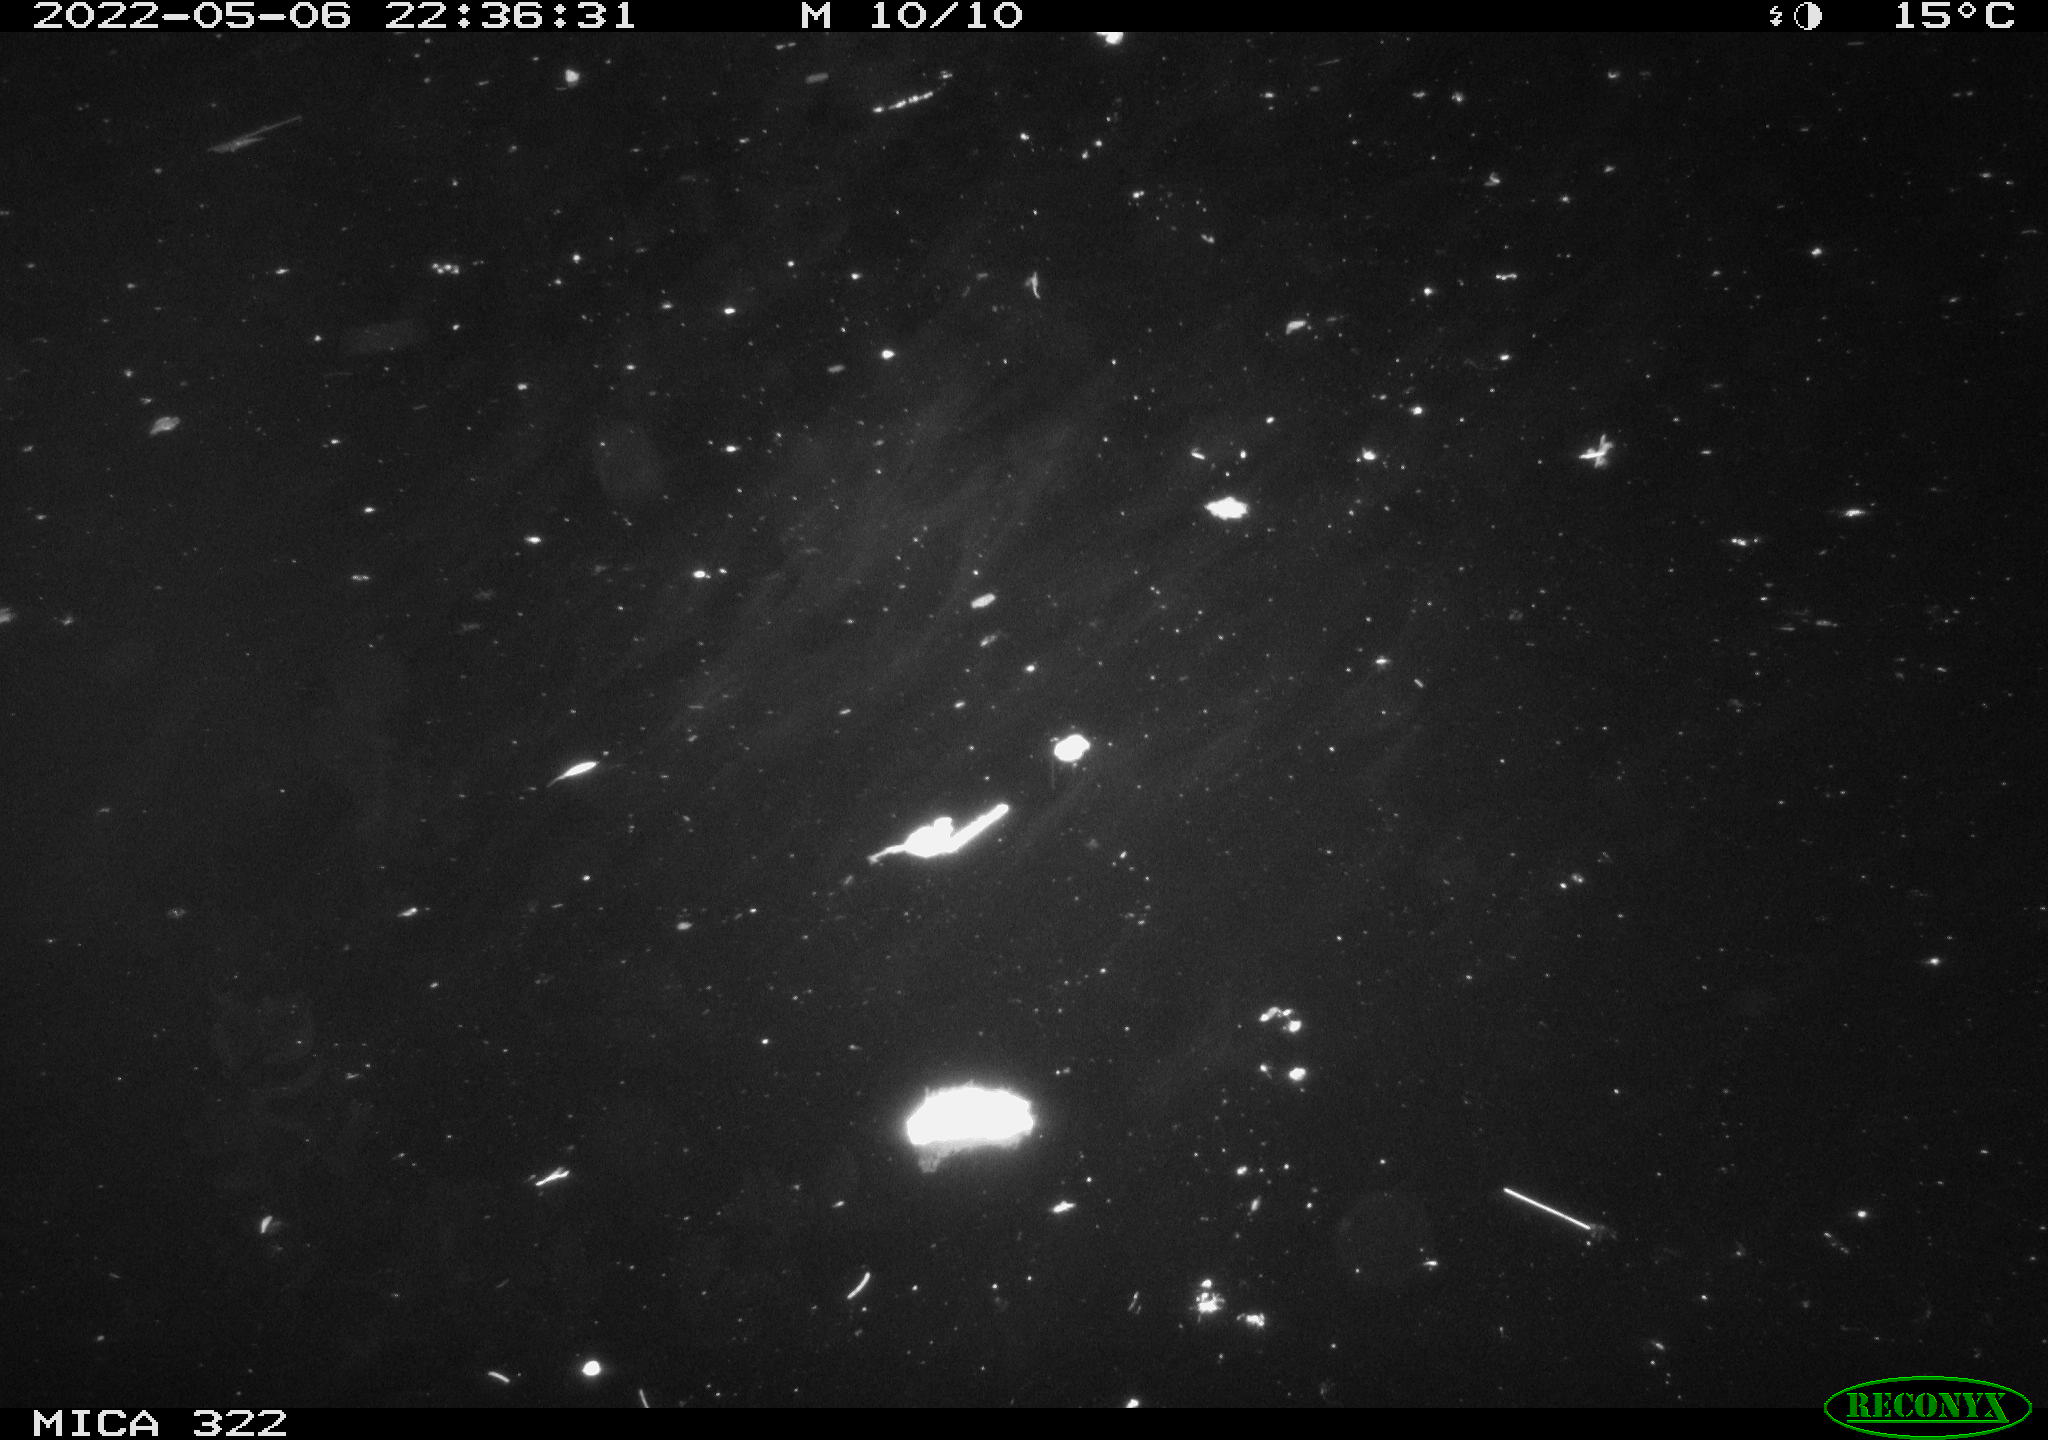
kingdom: Animalia
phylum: Chordata
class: Mammalia
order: Rodentia
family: Muridae
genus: Rattus
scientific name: Rattus norvegicus
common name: Brown rat
